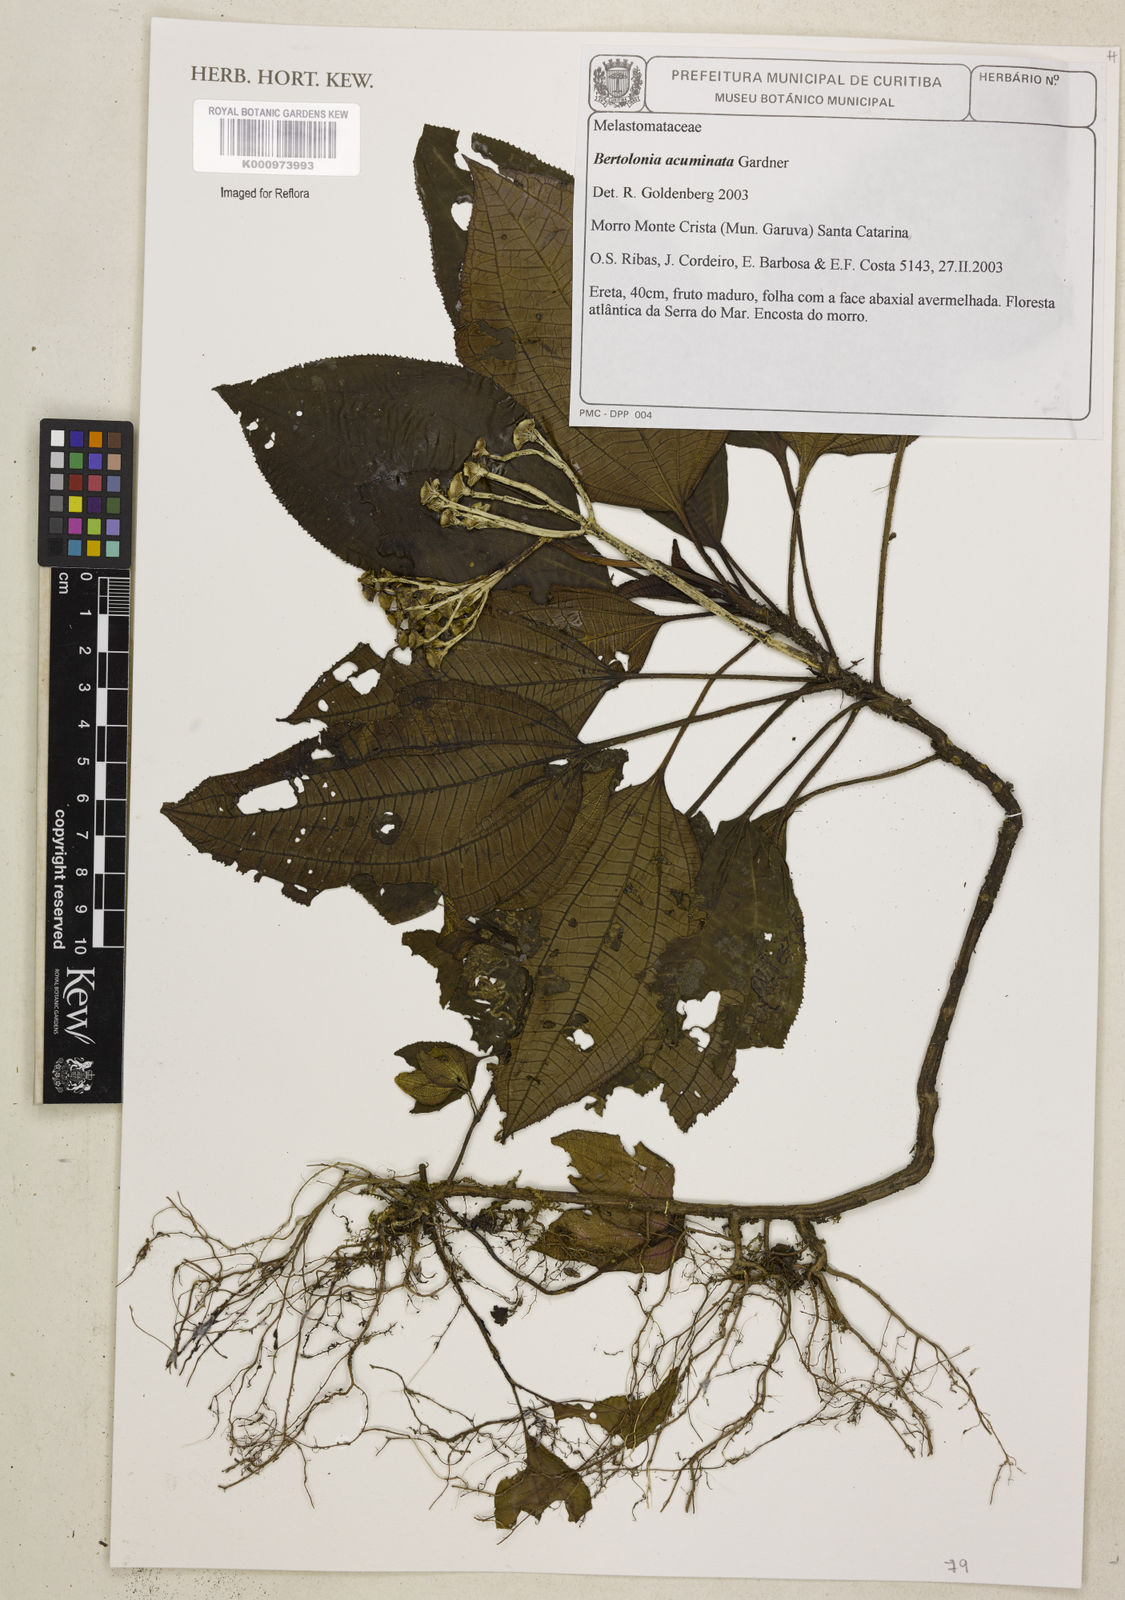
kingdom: Plantae
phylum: Tracheophyta
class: Magnoliopsida
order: Myrtales
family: Melastomataceae
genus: Bertolonia
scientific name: Bertolonia acuminata
